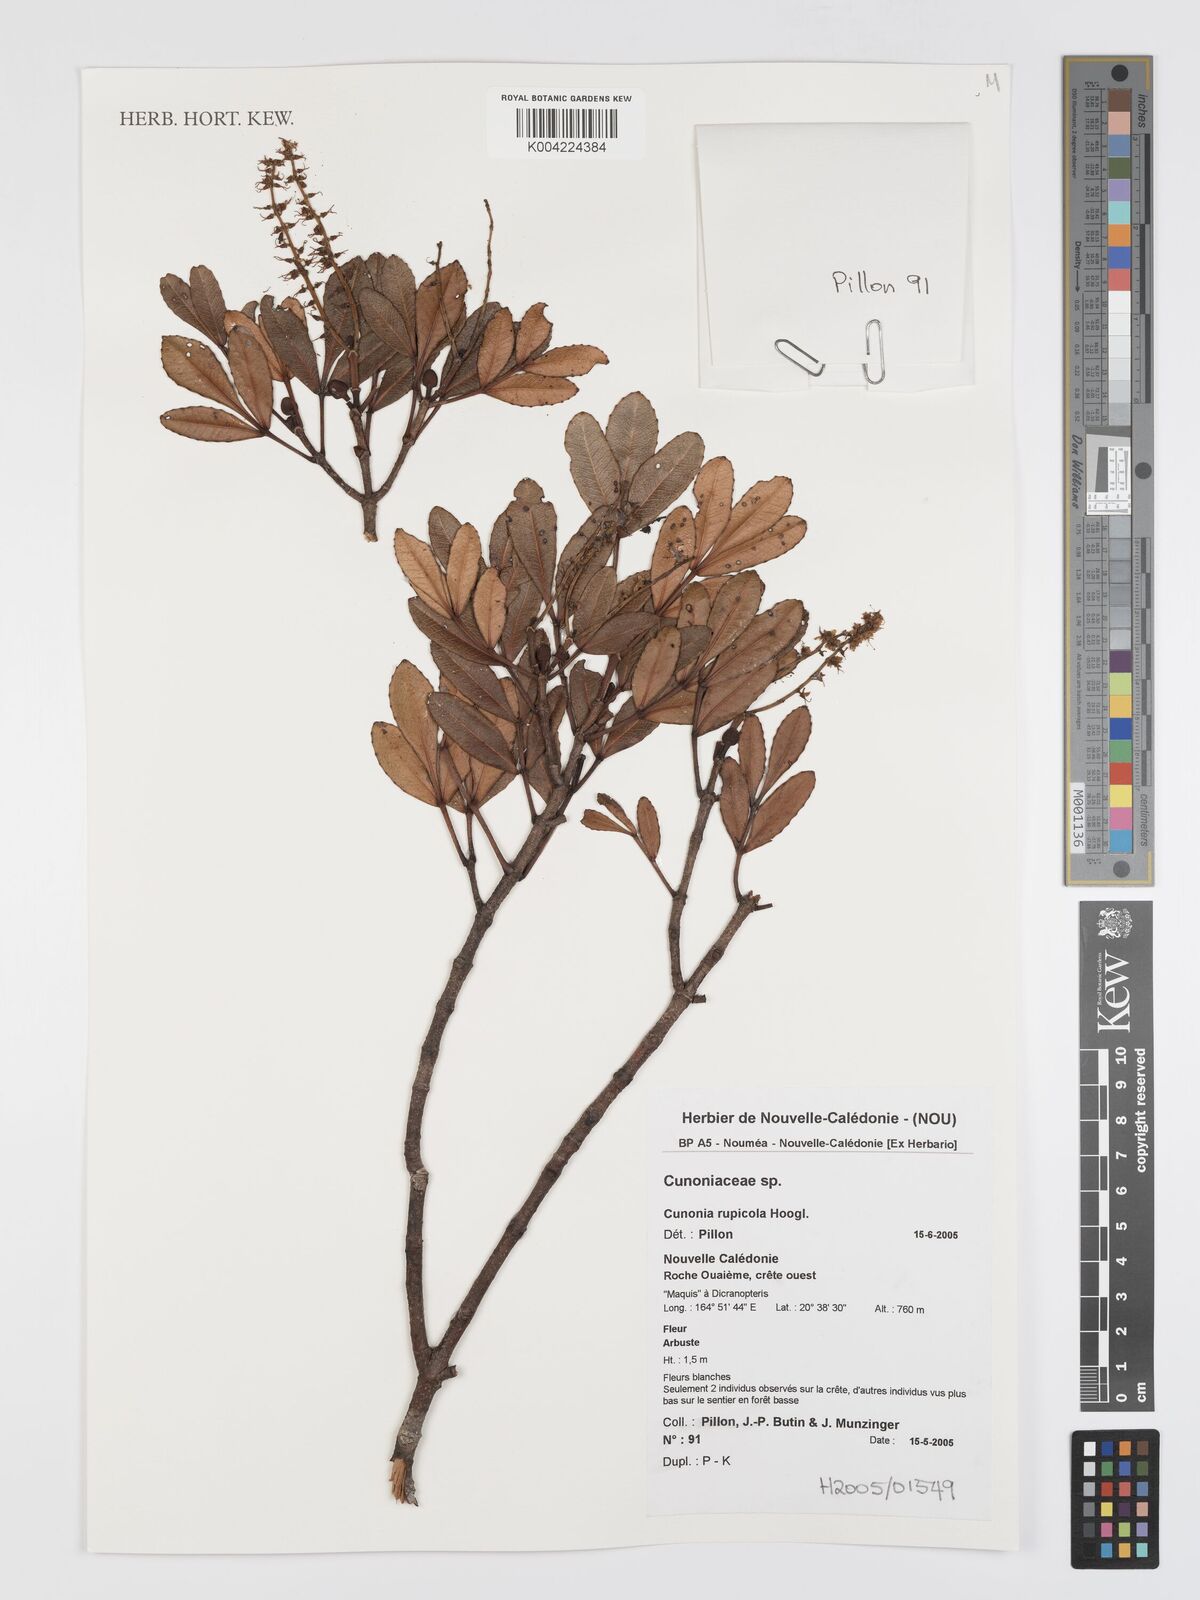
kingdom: Plantae
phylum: Tracheophyta
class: Magnoliopsida
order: Oxalidales
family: Cunoniaceae
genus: Cunonia
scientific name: Cunonia rupicola
